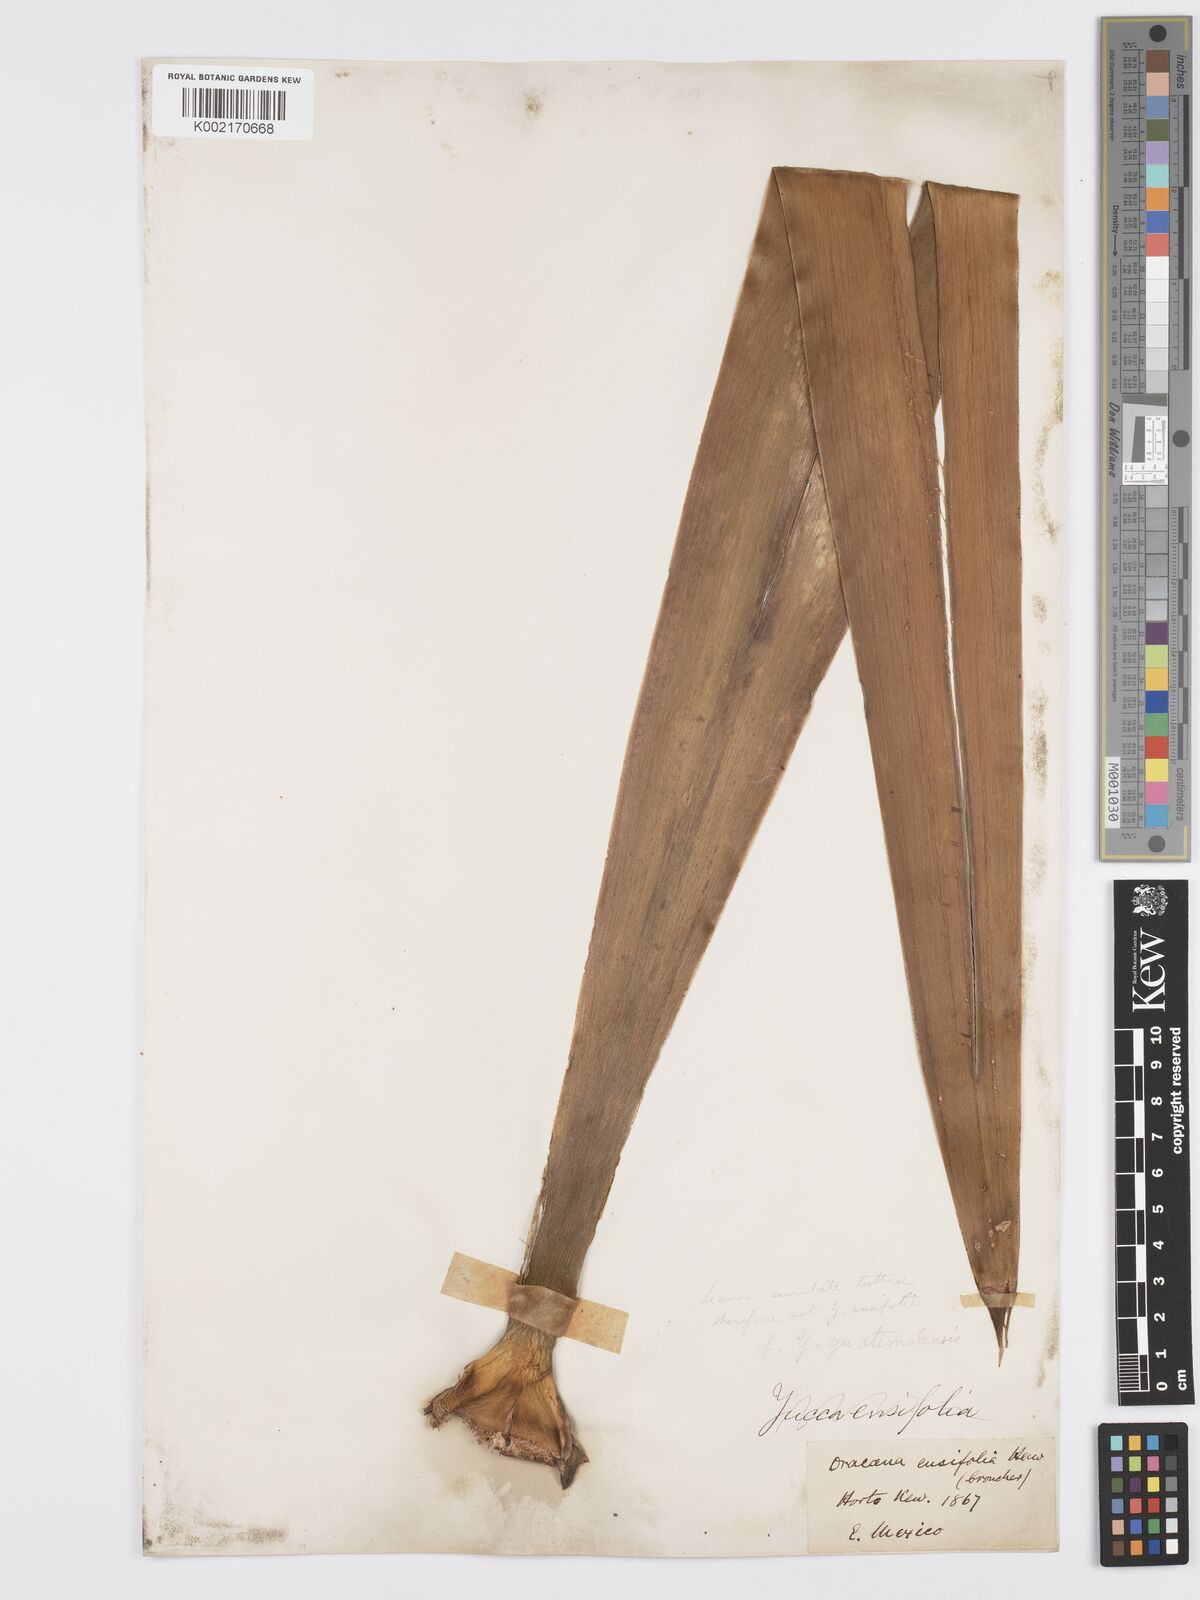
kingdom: Plantae
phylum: Tracheophyta
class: Liliopsida
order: Asparagales
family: Asparagaceae
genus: Yucca
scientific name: Yucca gigantea
